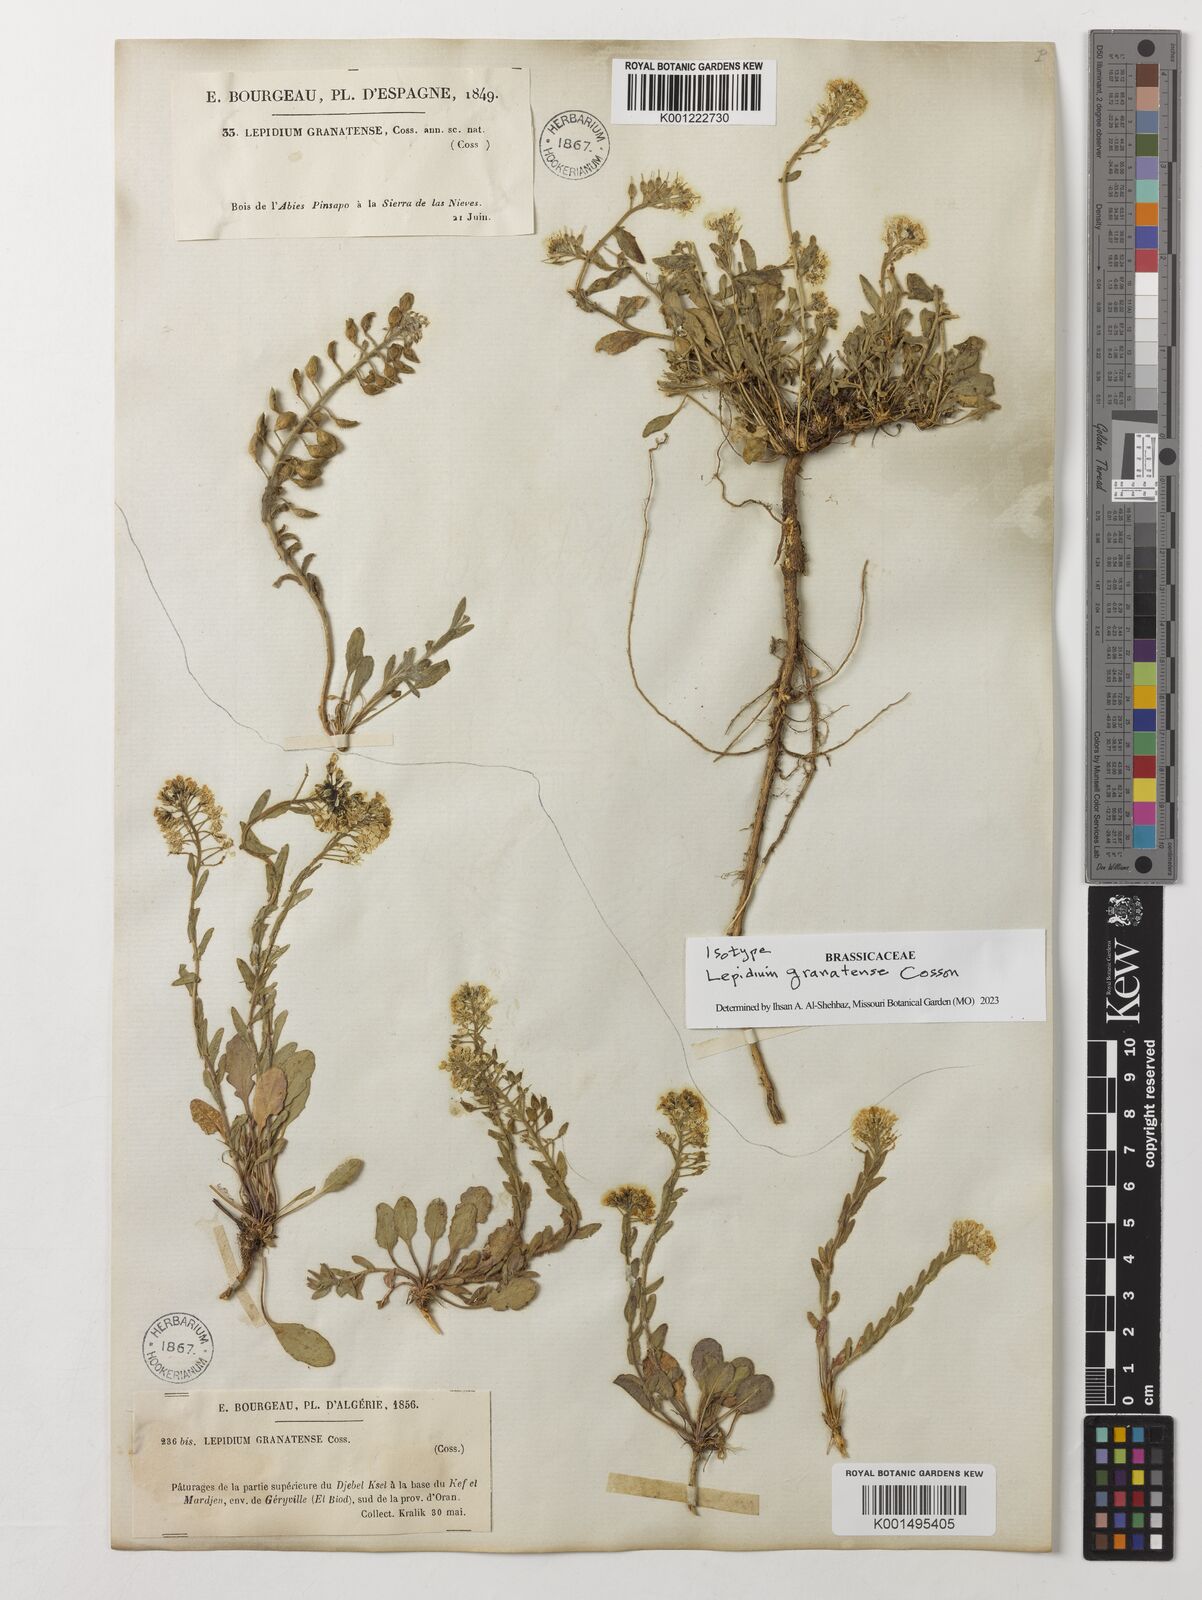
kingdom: Plantae
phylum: Tracheophyta
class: Magnoliopsida
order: Brassicales
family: Brassicaceae
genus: Lepidium
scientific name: Lepidium hirtum
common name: Mediterranean pepperweed
